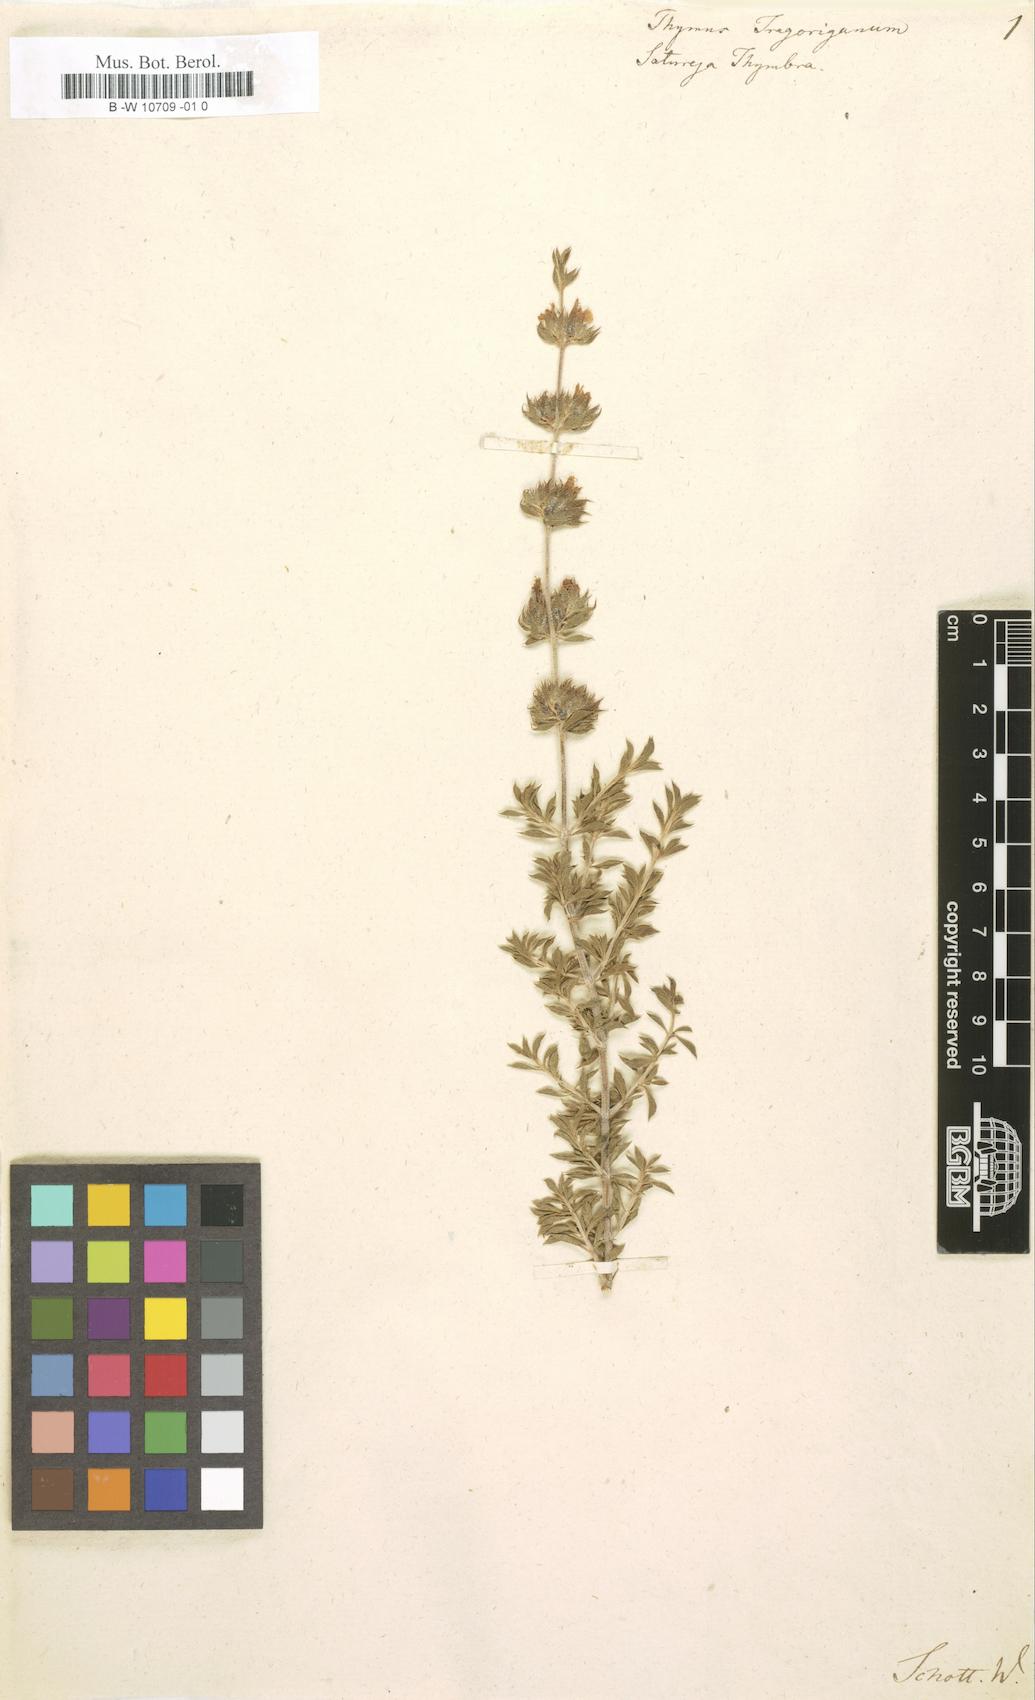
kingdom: Plantae
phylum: Tracheophyta
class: Magnoliopsida
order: Lamiales
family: Lamiaceae
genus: Satureja
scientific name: Satureja thymbra
